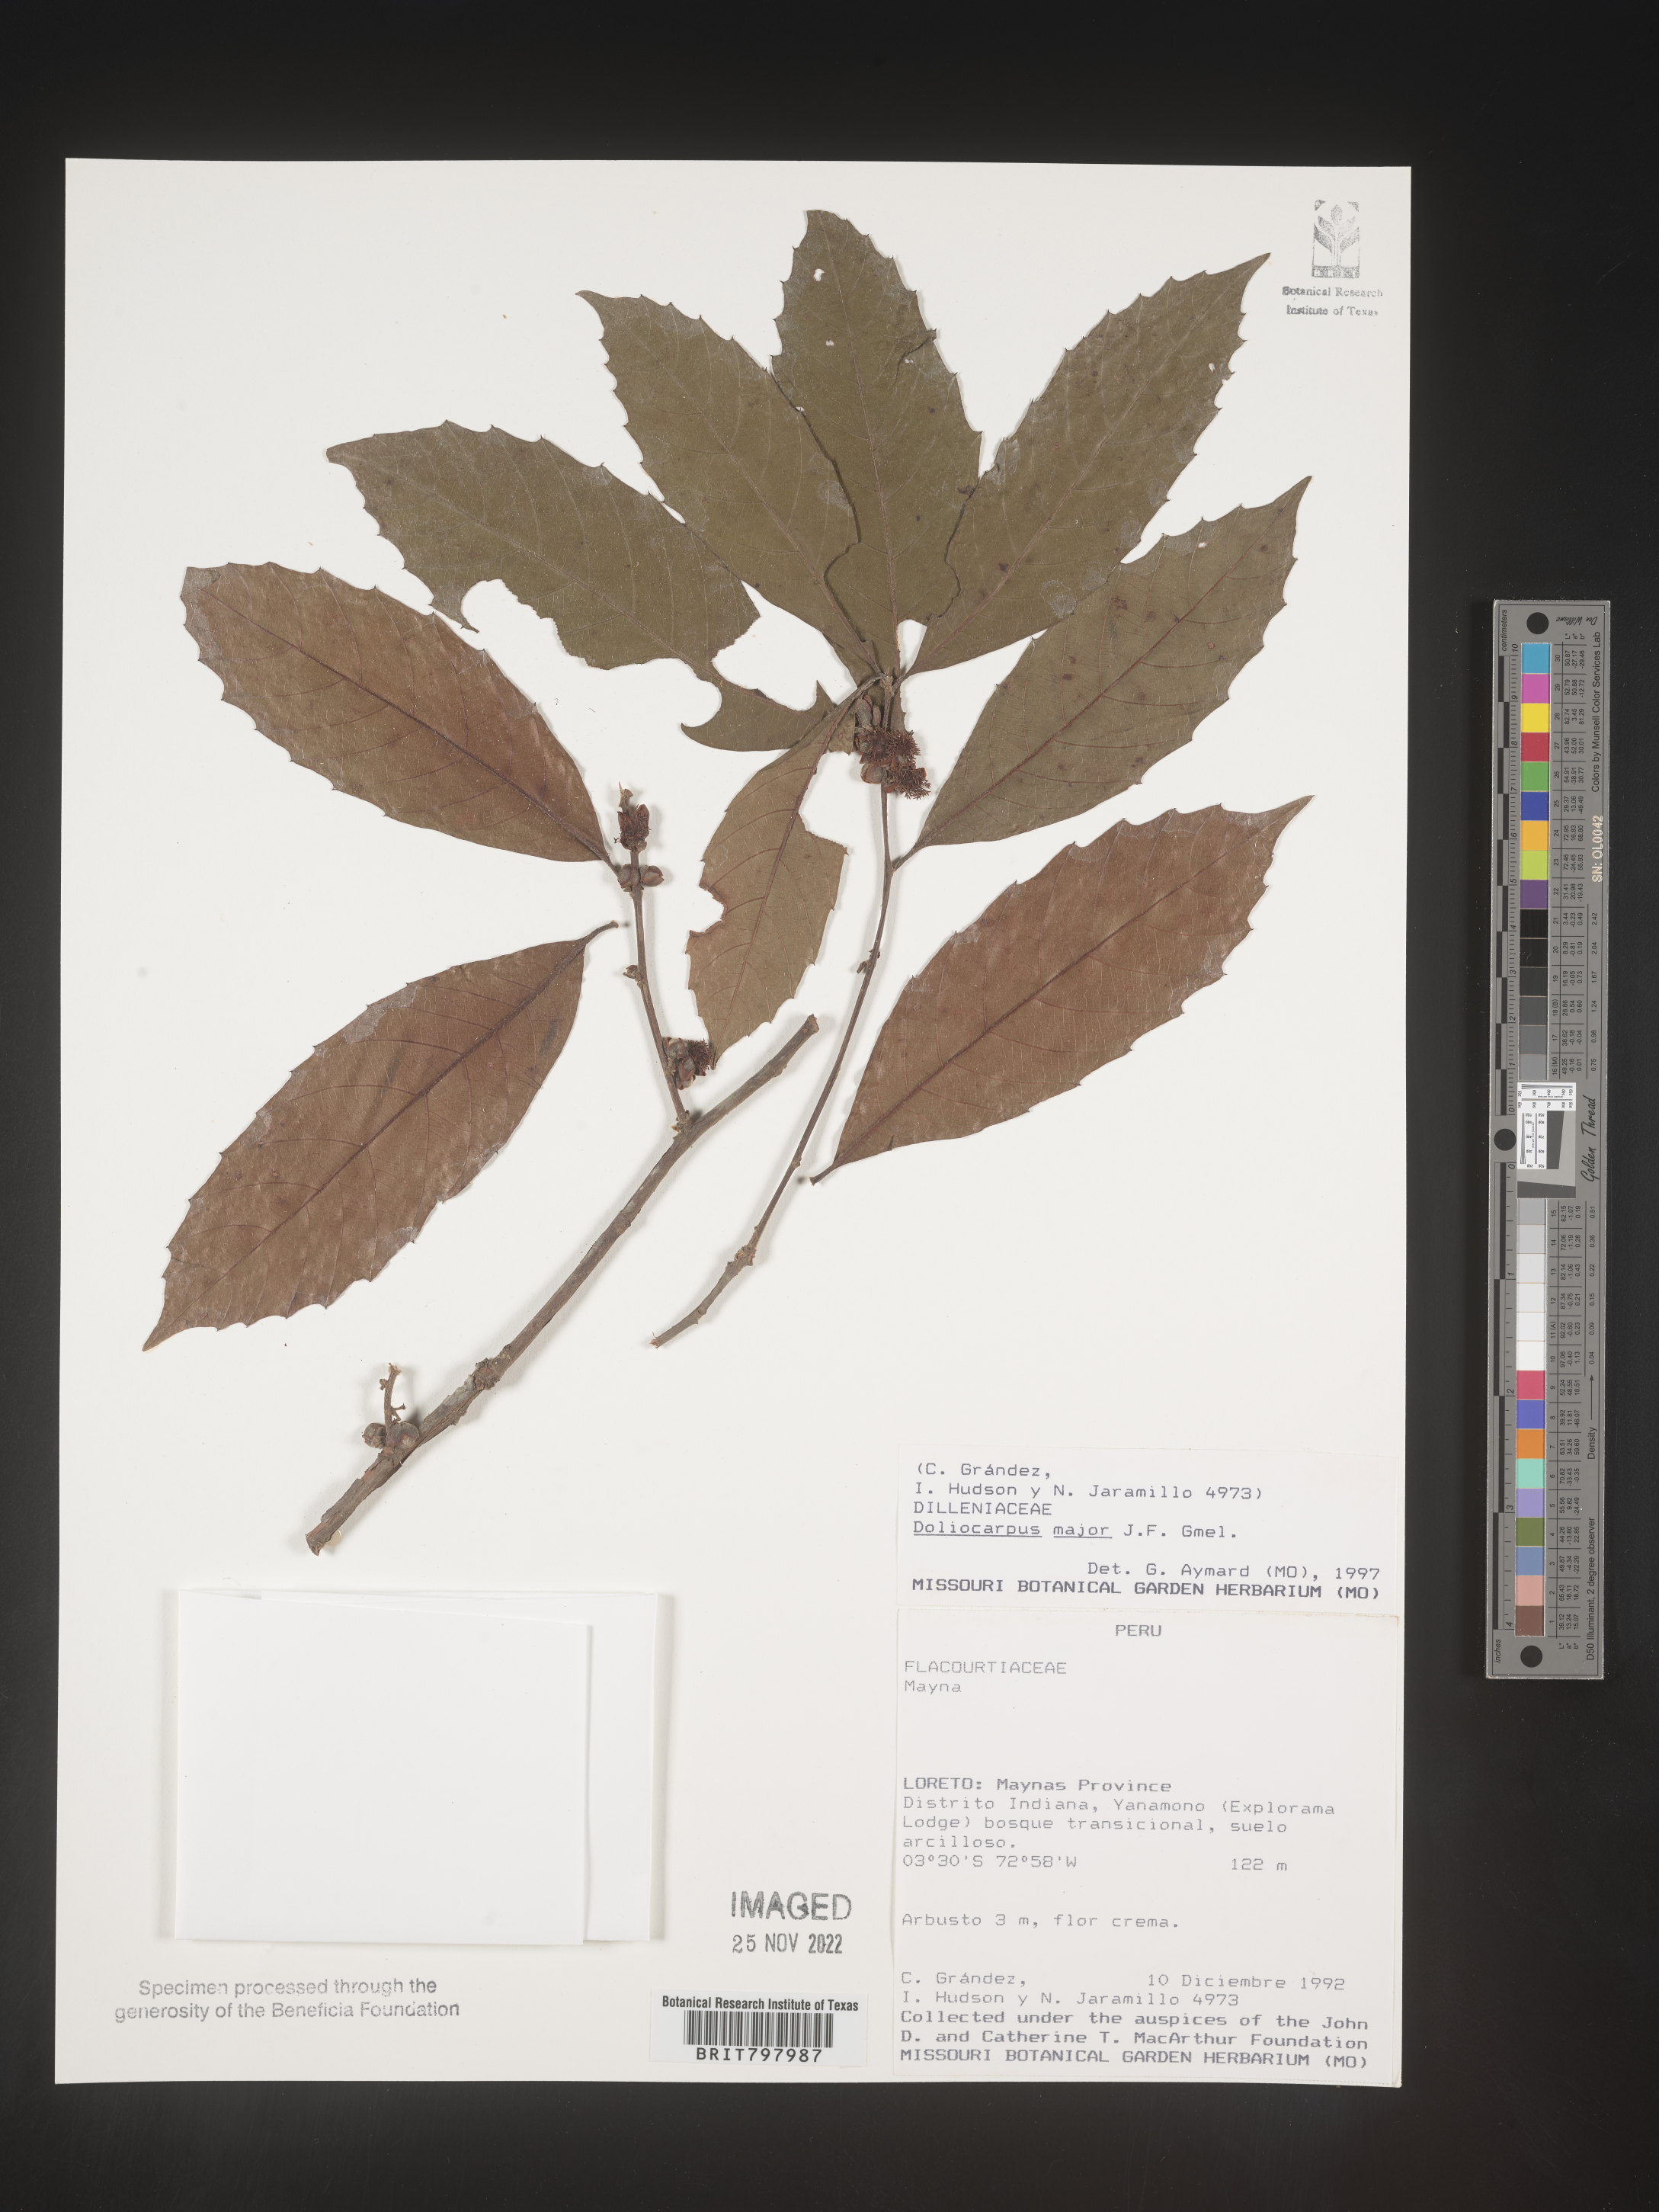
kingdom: Plantae
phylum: Tracheophyta
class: Magnoliopsida
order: Dilleniales
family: Dilleniaceae
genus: Doliocarpus
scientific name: Doliocarpus
